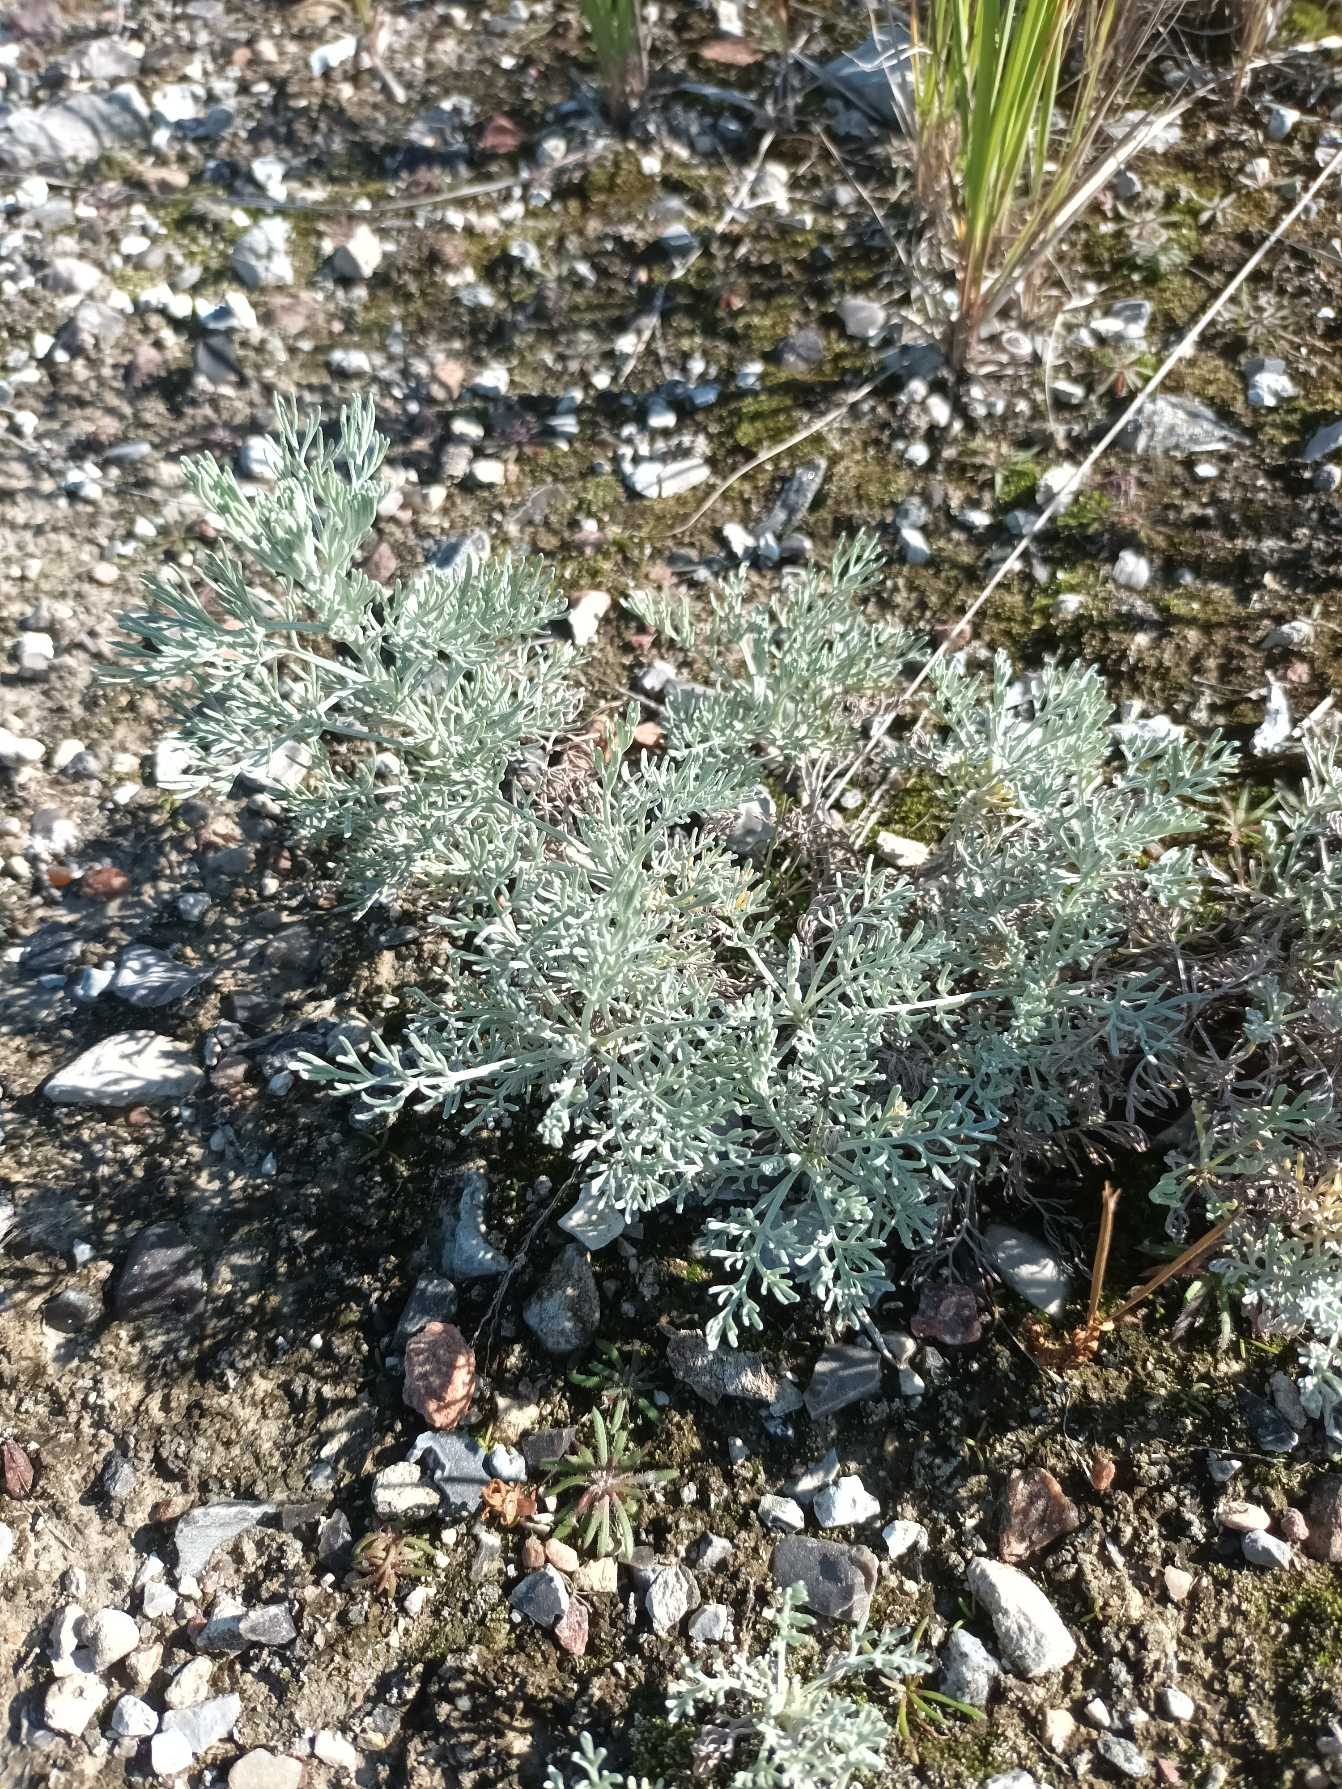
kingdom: Plantae
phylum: Tracheophyta
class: Magnoliopsida
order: Asterales
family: Asteraceae
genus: Artemisia
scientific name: Artemisia maritima
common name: Strandmalurt
